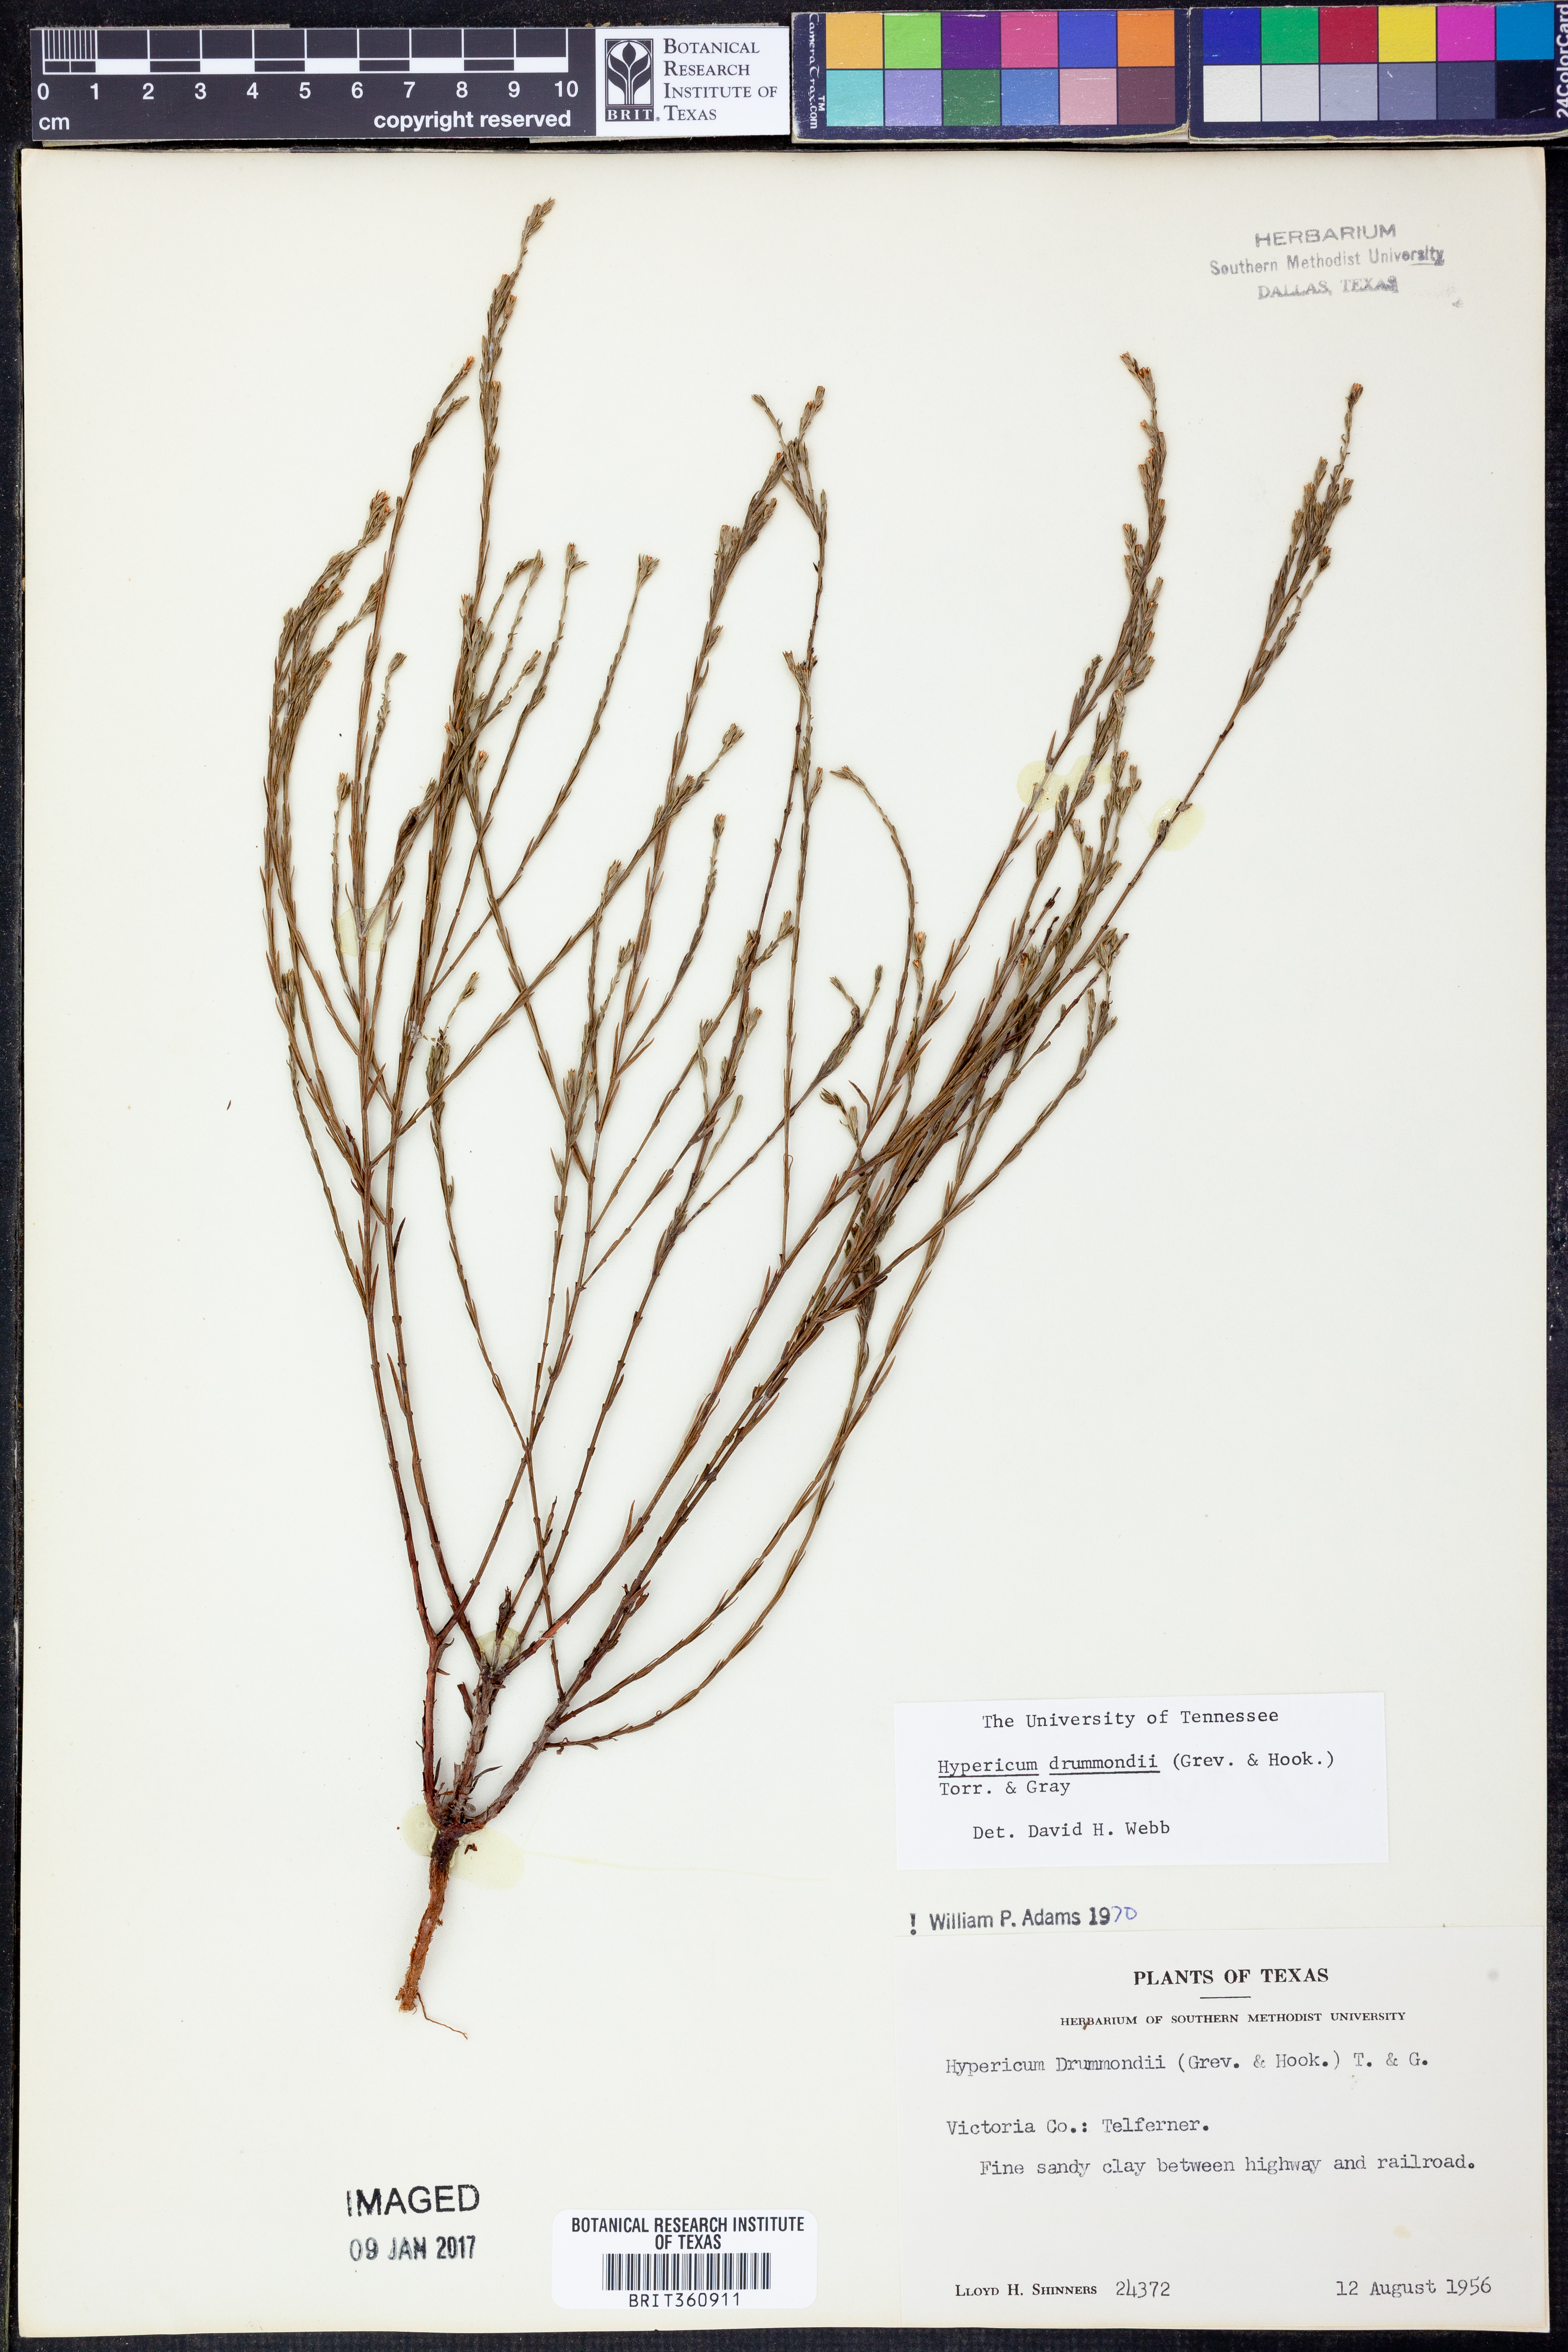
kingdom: Plantae
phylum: Tracheophyta
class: Magnoliopsida
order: Malpighiales
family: Hypericaceae
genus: Hypericum
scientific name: Hypericum drummondii
